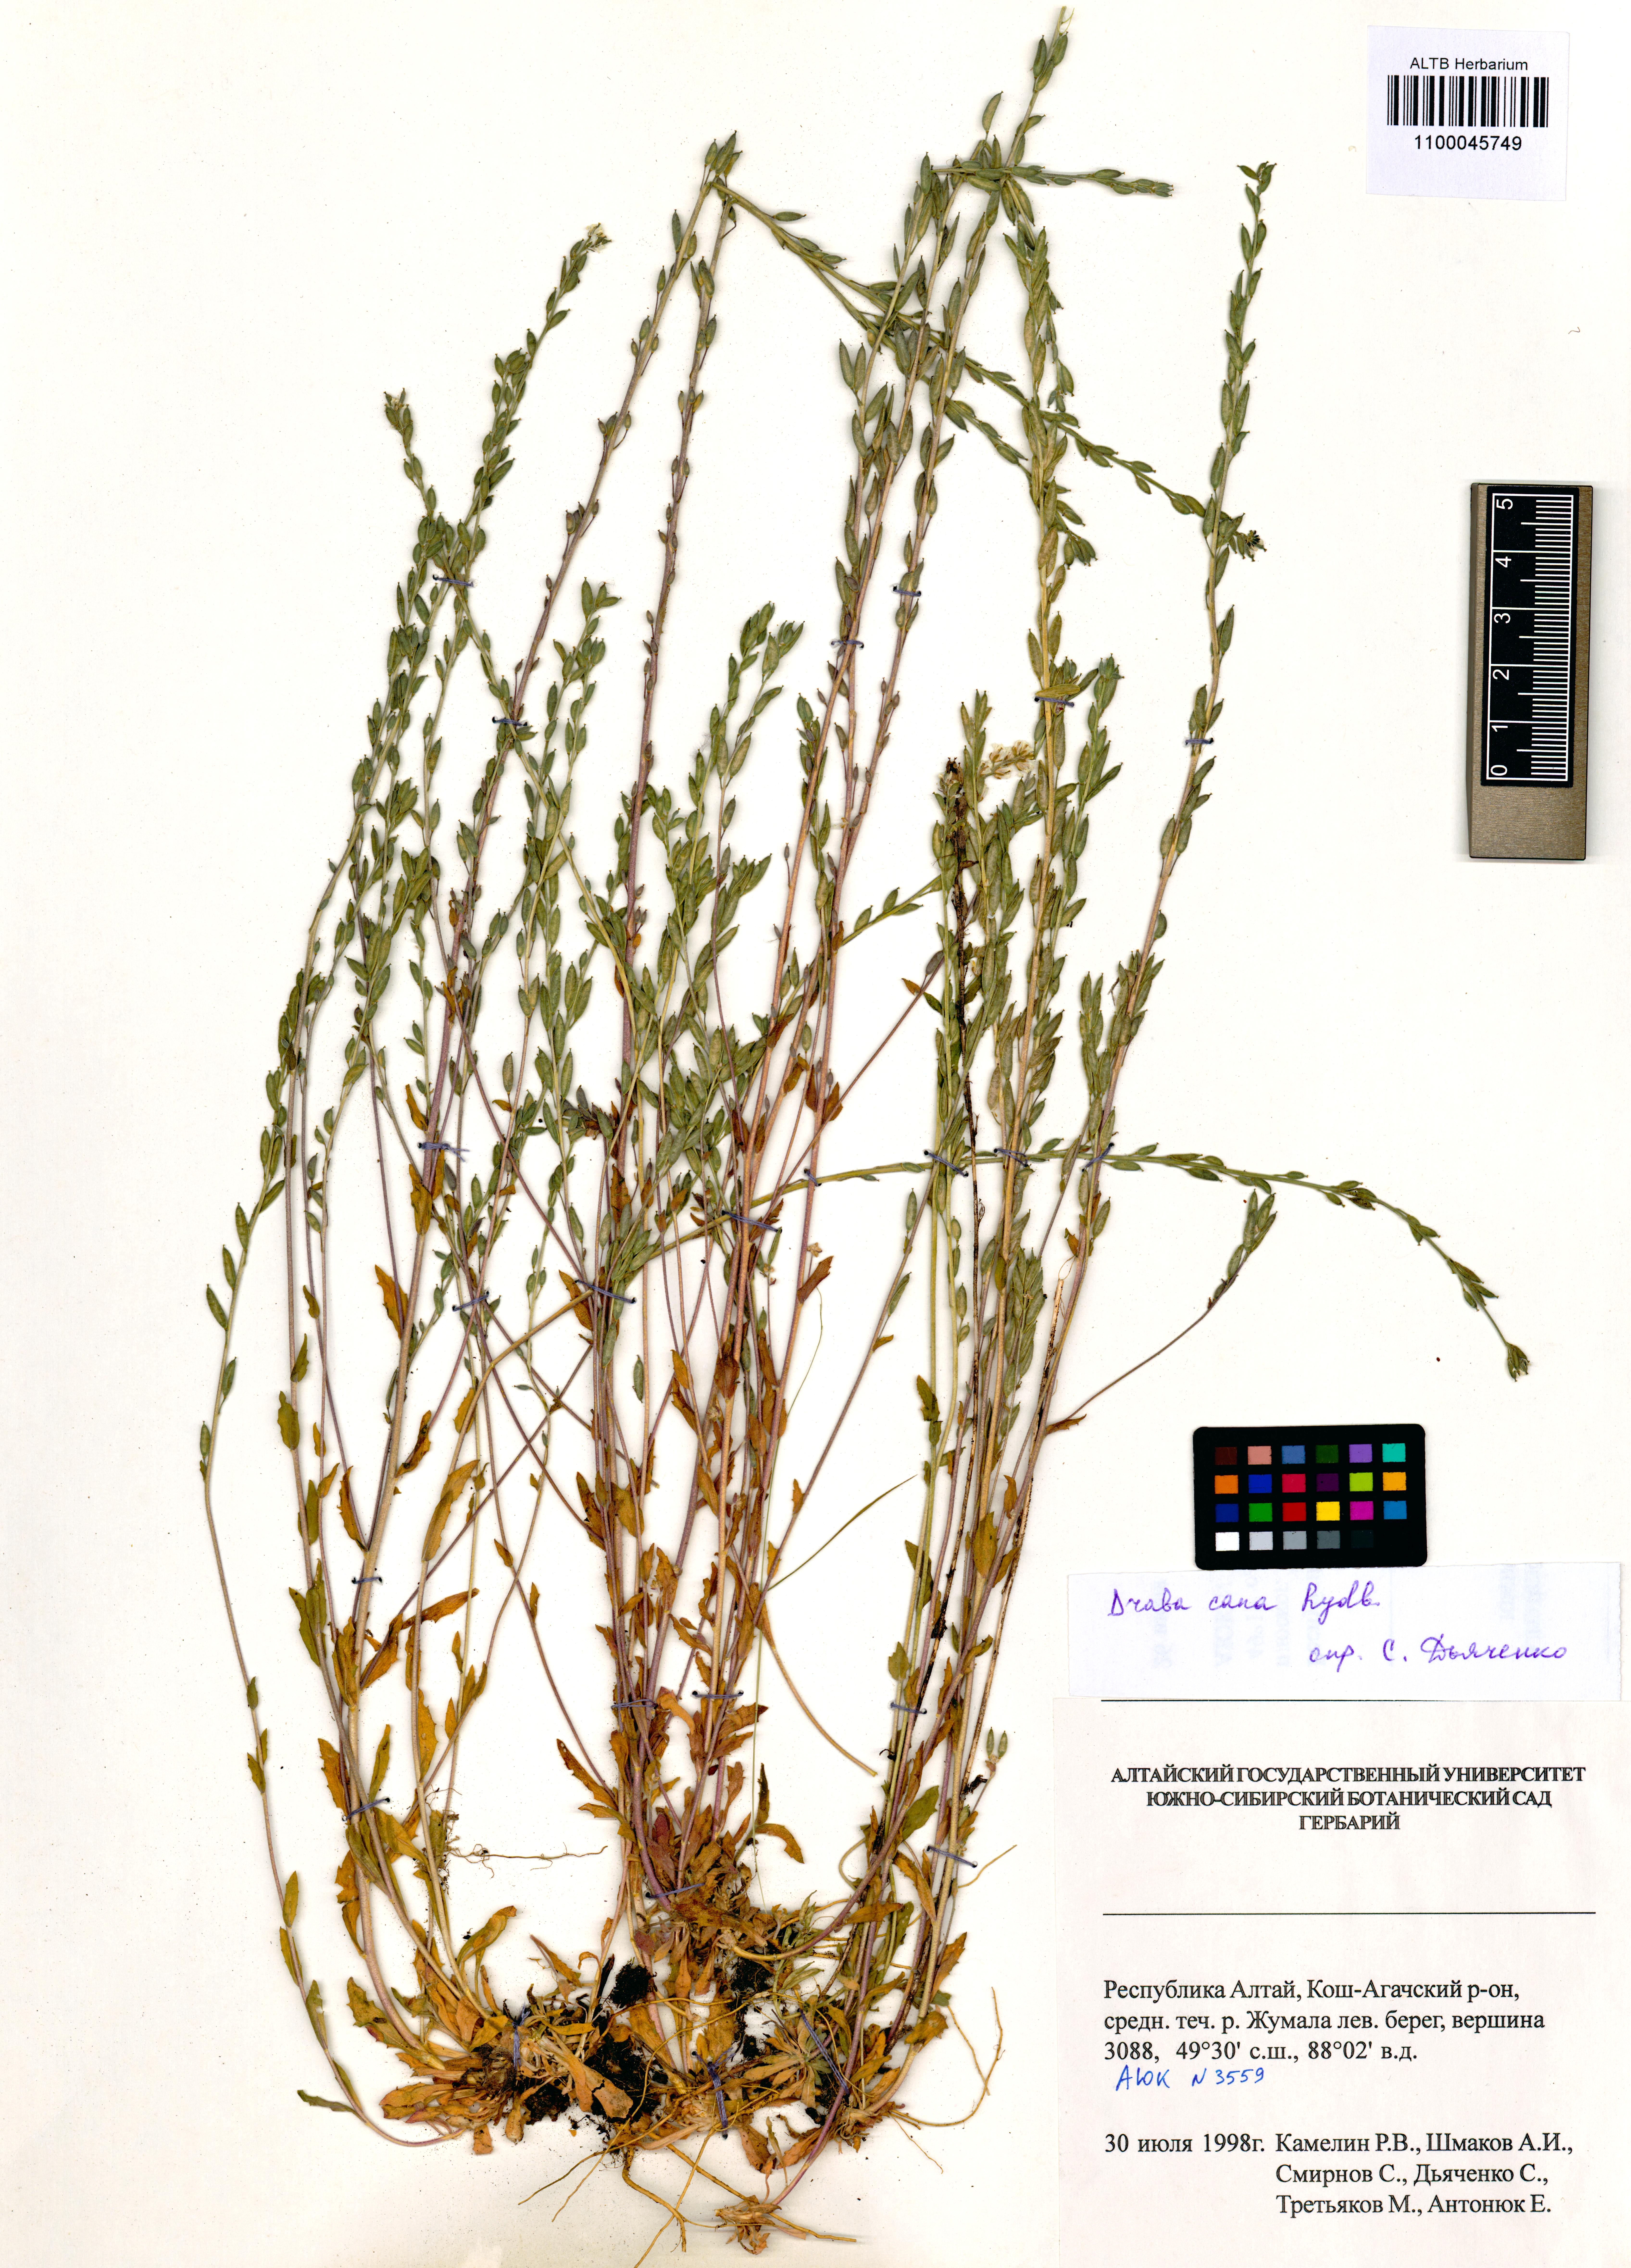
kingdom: Plantae
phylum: Tracheophyta
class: Magnoliopsida
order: Brassicales
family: Brassicaceae
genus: Draba
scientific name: Draba cana
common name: Hoary draba
